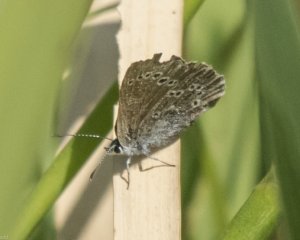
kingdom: Animalia
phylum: Arthropoda
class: Insecta
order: Lepidoptera
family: Lycaenidae
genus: Glaucopsyche
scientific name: Glaucopsyche lygdamus
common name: Silvery Blue
